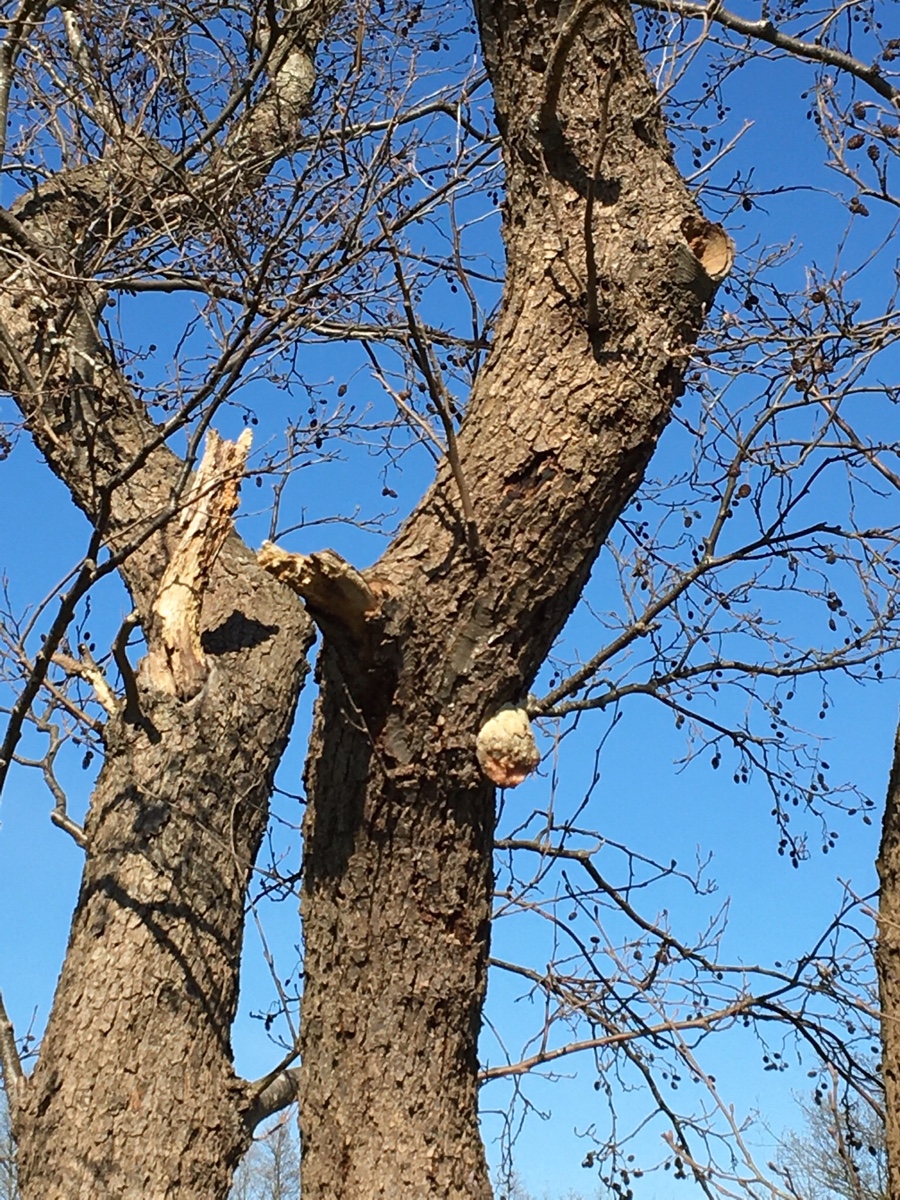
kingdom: Protozoa
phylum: Mycetozoa
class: Myxomycetes
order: Cribrariales
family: Tubiferaceae
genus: Reticularia
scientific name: Reticularia lycoperdon
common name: skinnende støvpude
